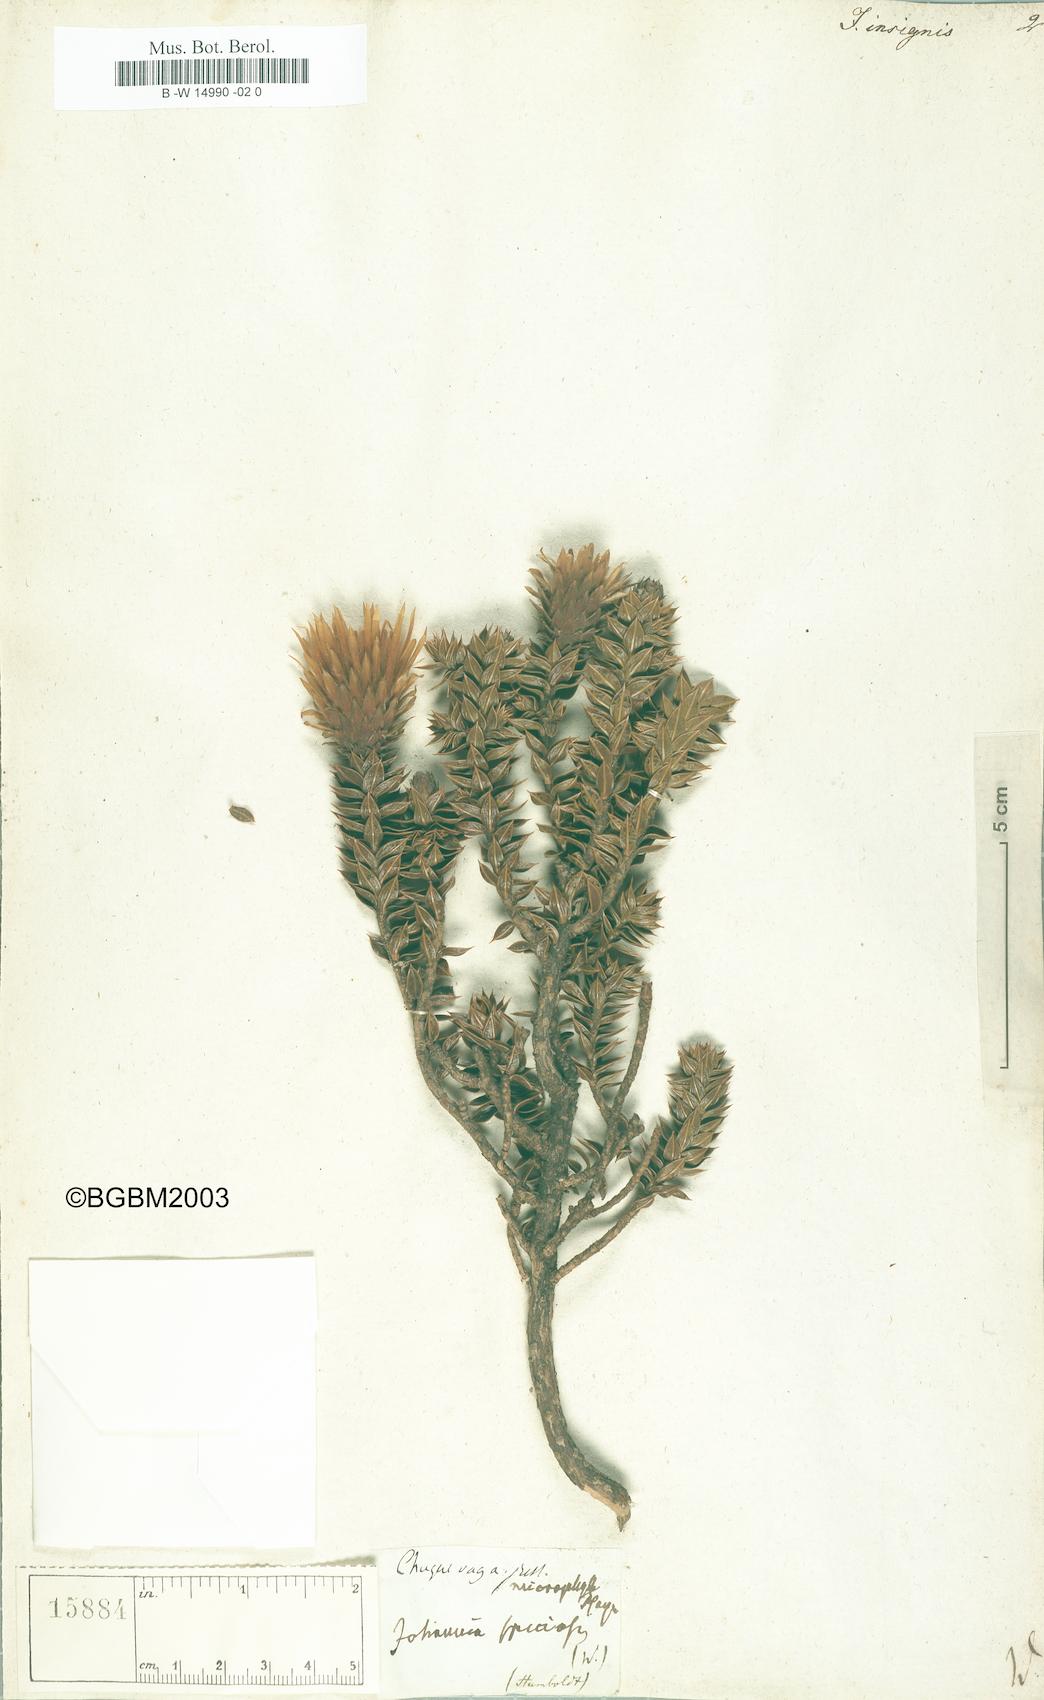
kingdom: Plantae
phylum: Tracheophyta
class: Magnoliopsida
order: Asterales
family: Asteraceae
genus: Chuquiraga
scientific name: Chuquiraga jussieui
